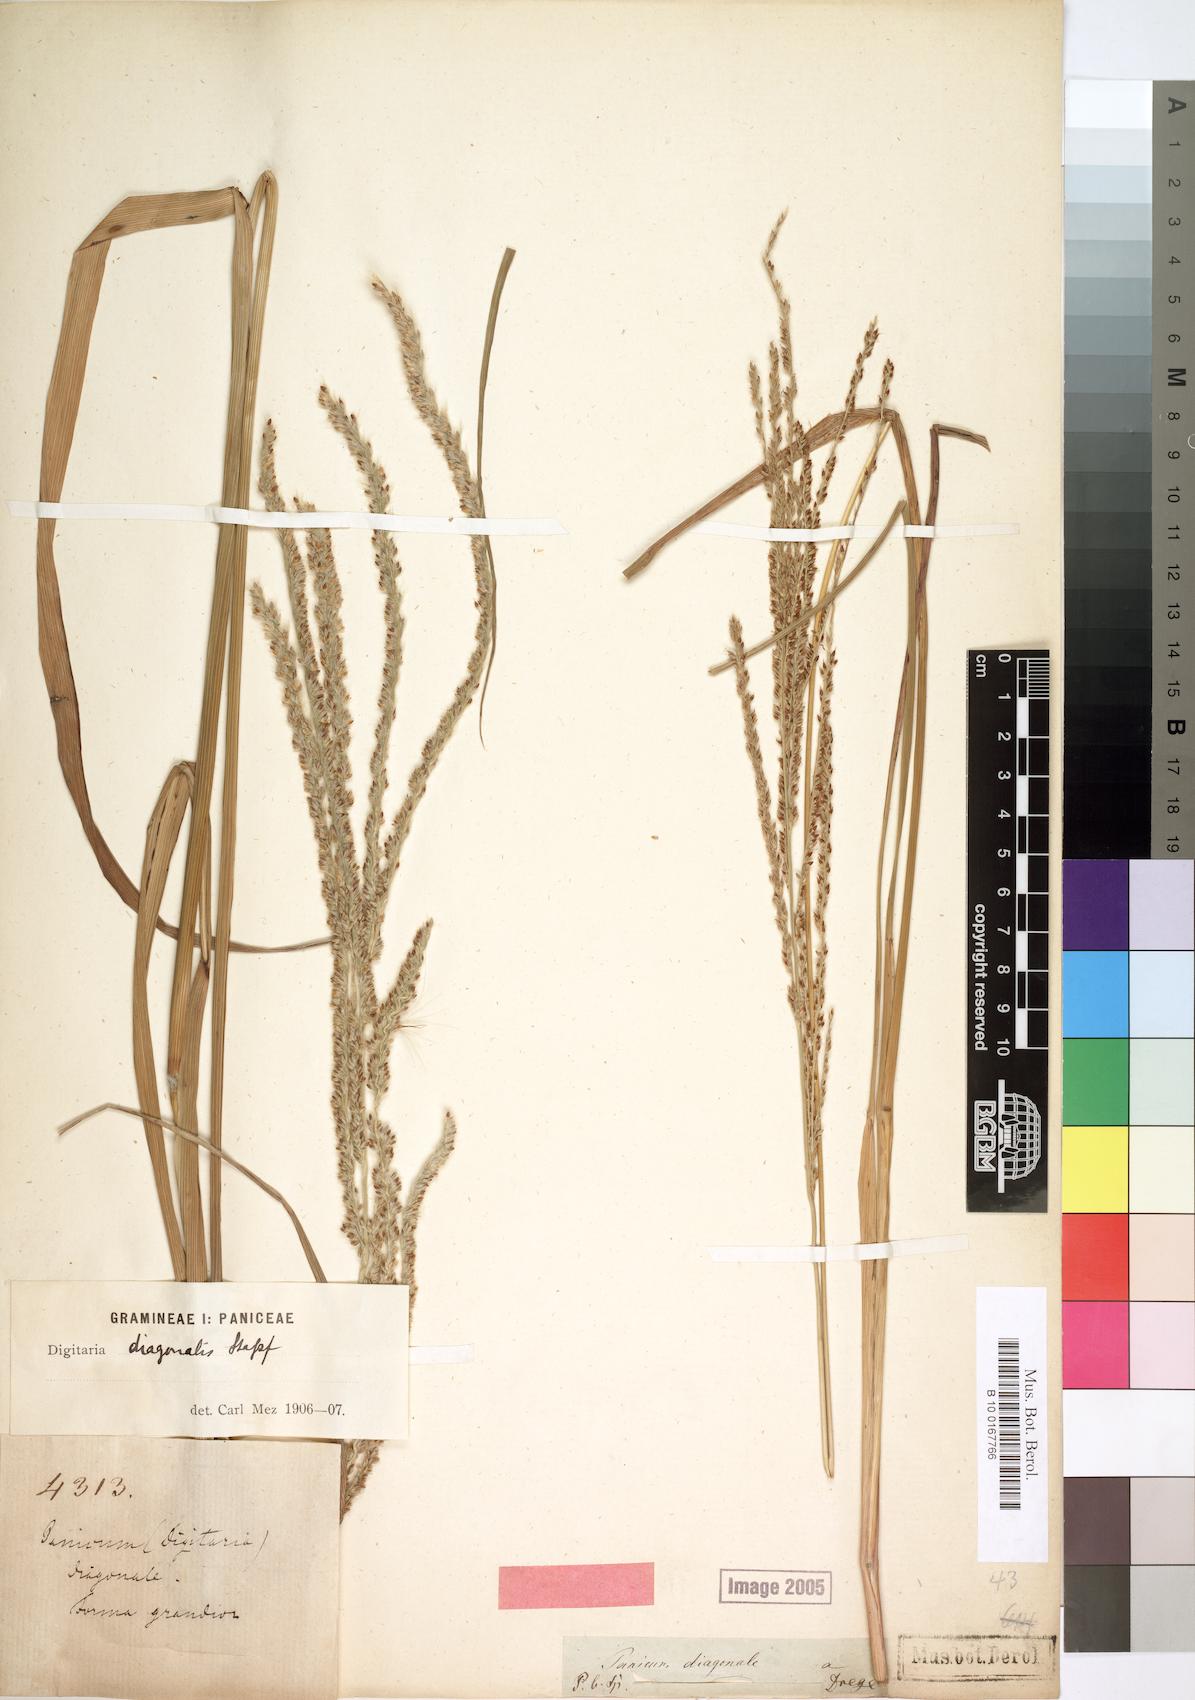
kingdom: Plantae
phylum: Tracheophyta
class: Liliopsida
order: Poales
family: Poaceae
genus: Digitaria
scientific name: Digitaria diagonalis
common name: Brown-seed finger grass
